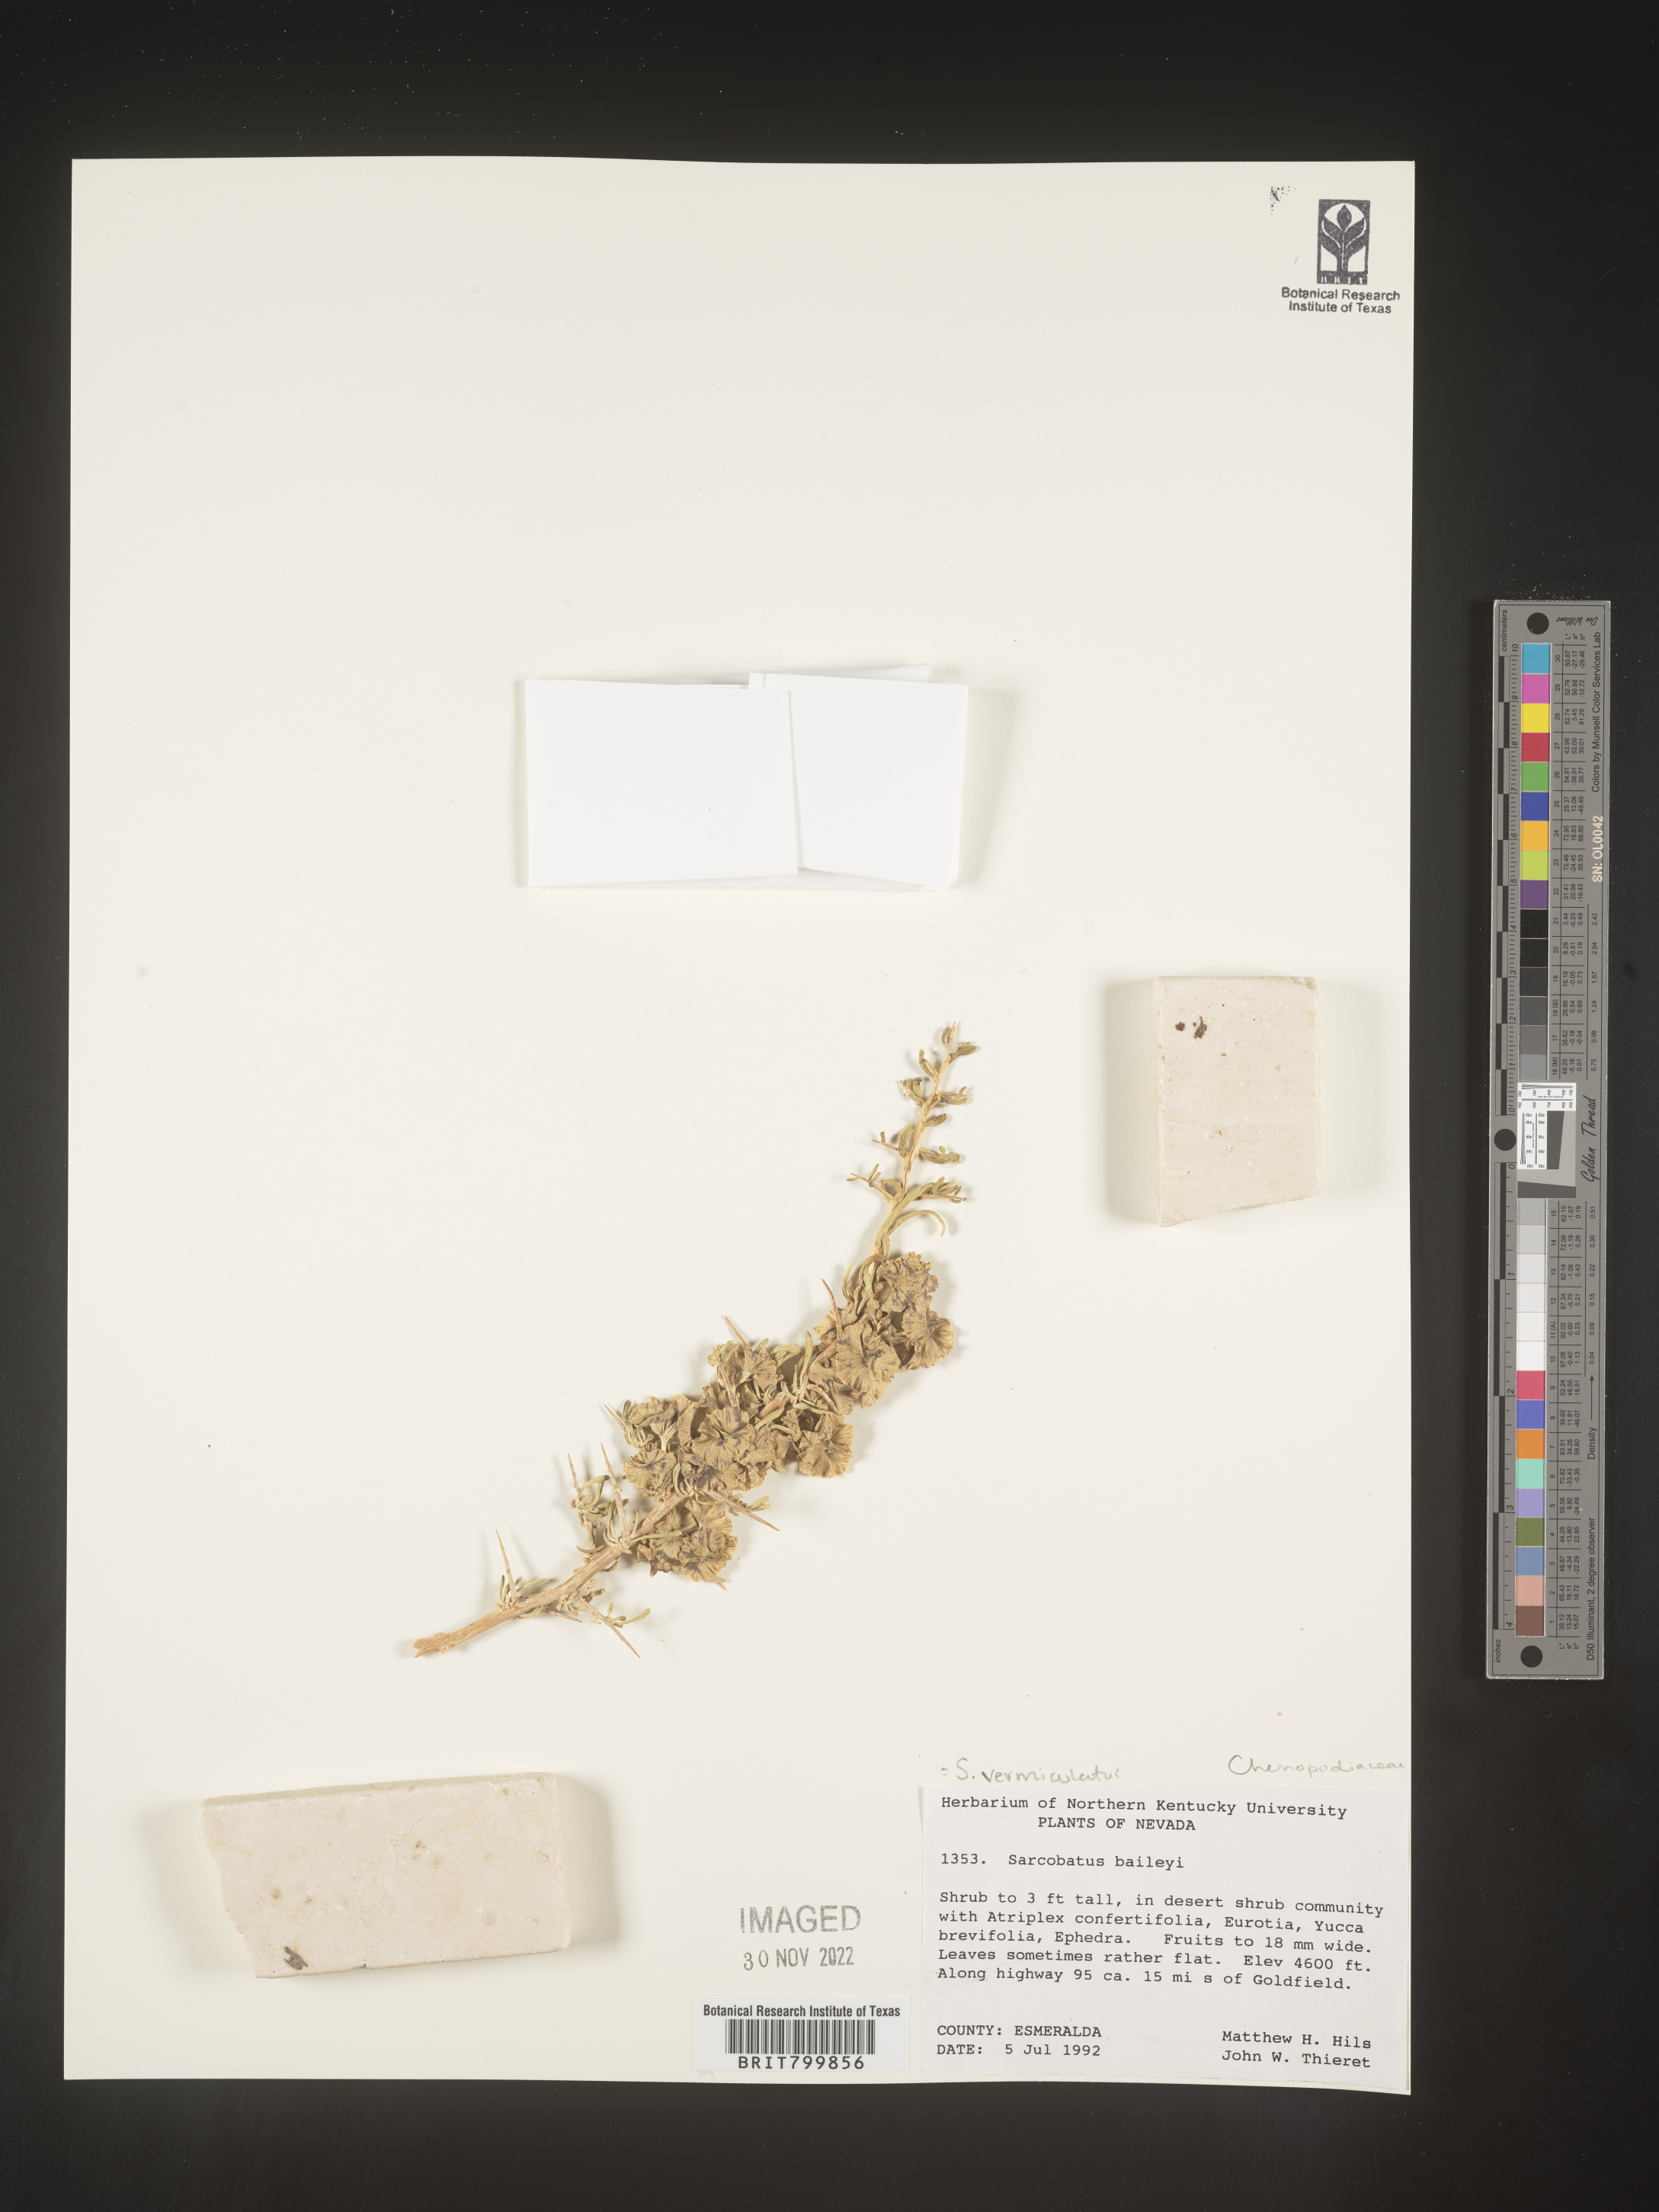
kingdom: Plantae
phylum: Tracheophyta
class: Magnoliopsida
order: Caryophyllales
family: Sarcobataceae
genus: Sarcobatus
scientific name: Sarcobatus vermiculatus
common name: Greasewood
